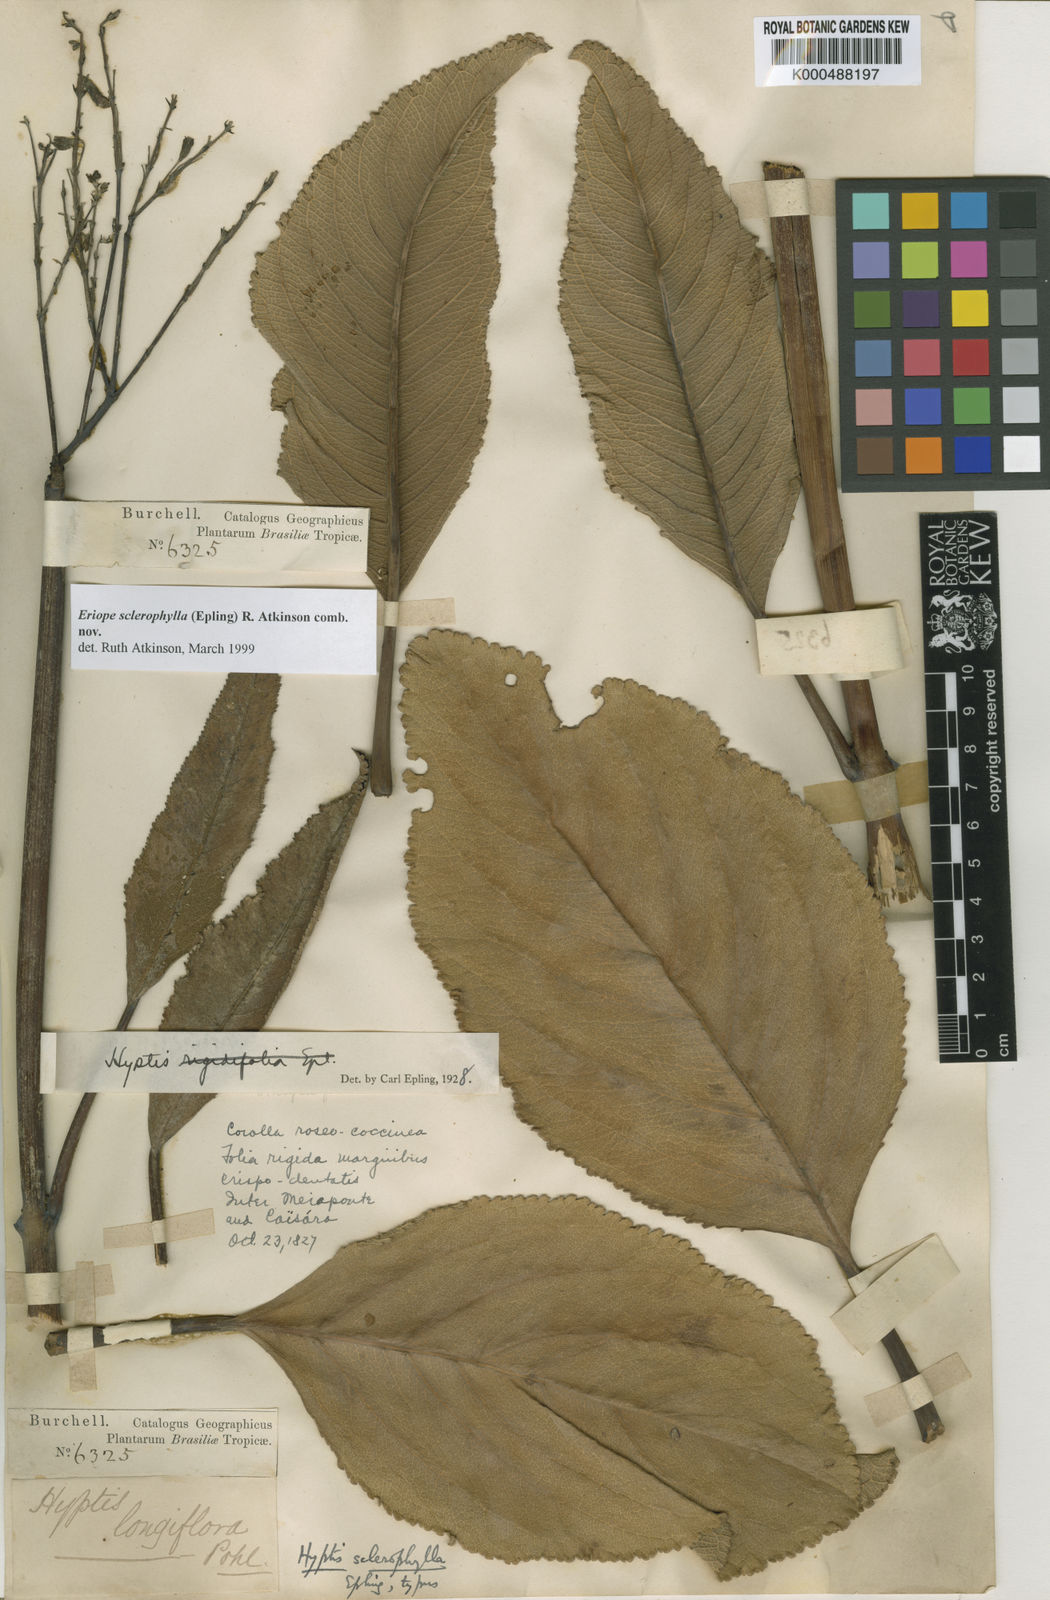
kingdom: Plantae
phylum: Tracheophyta
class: Magnoliopsida
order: Lamiales
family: Lamiaceae
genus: Hypenia
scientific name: Hypenia durifolia
